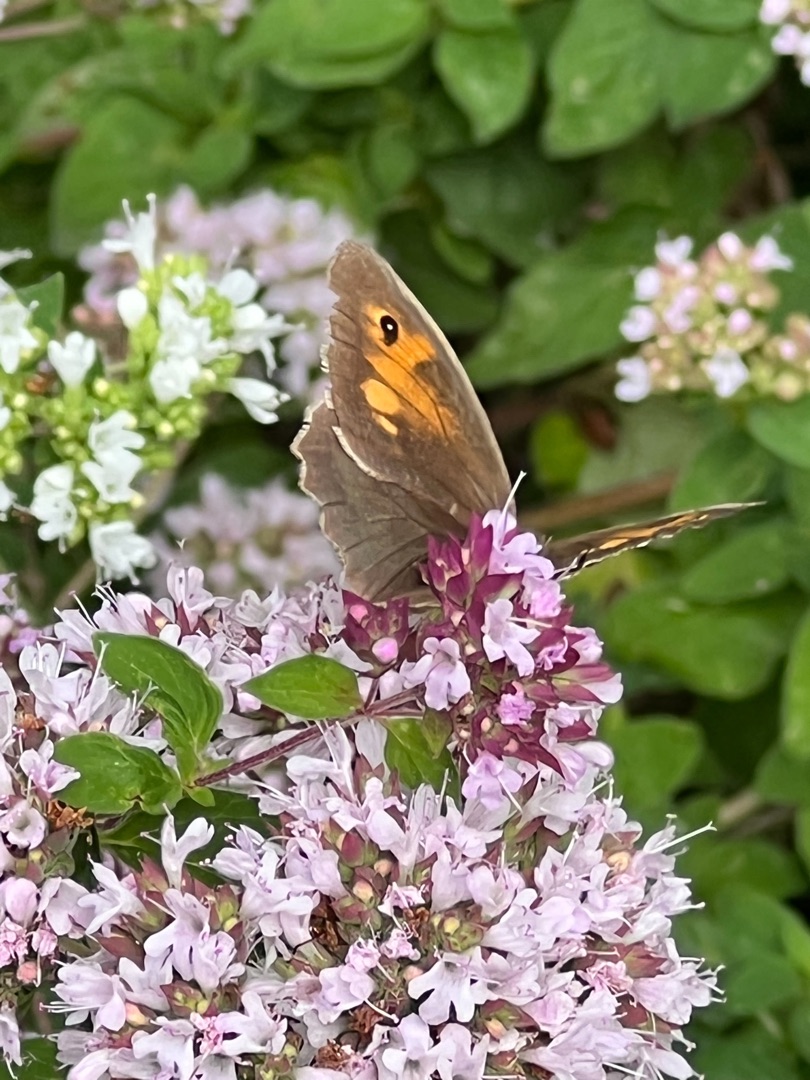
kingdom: Animalia
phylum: Arthropoda
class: Insecta
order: Lepidoptera
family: Nymphalidae
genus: Maniola
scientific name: Maniola jurtina
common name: Græsrandøje
